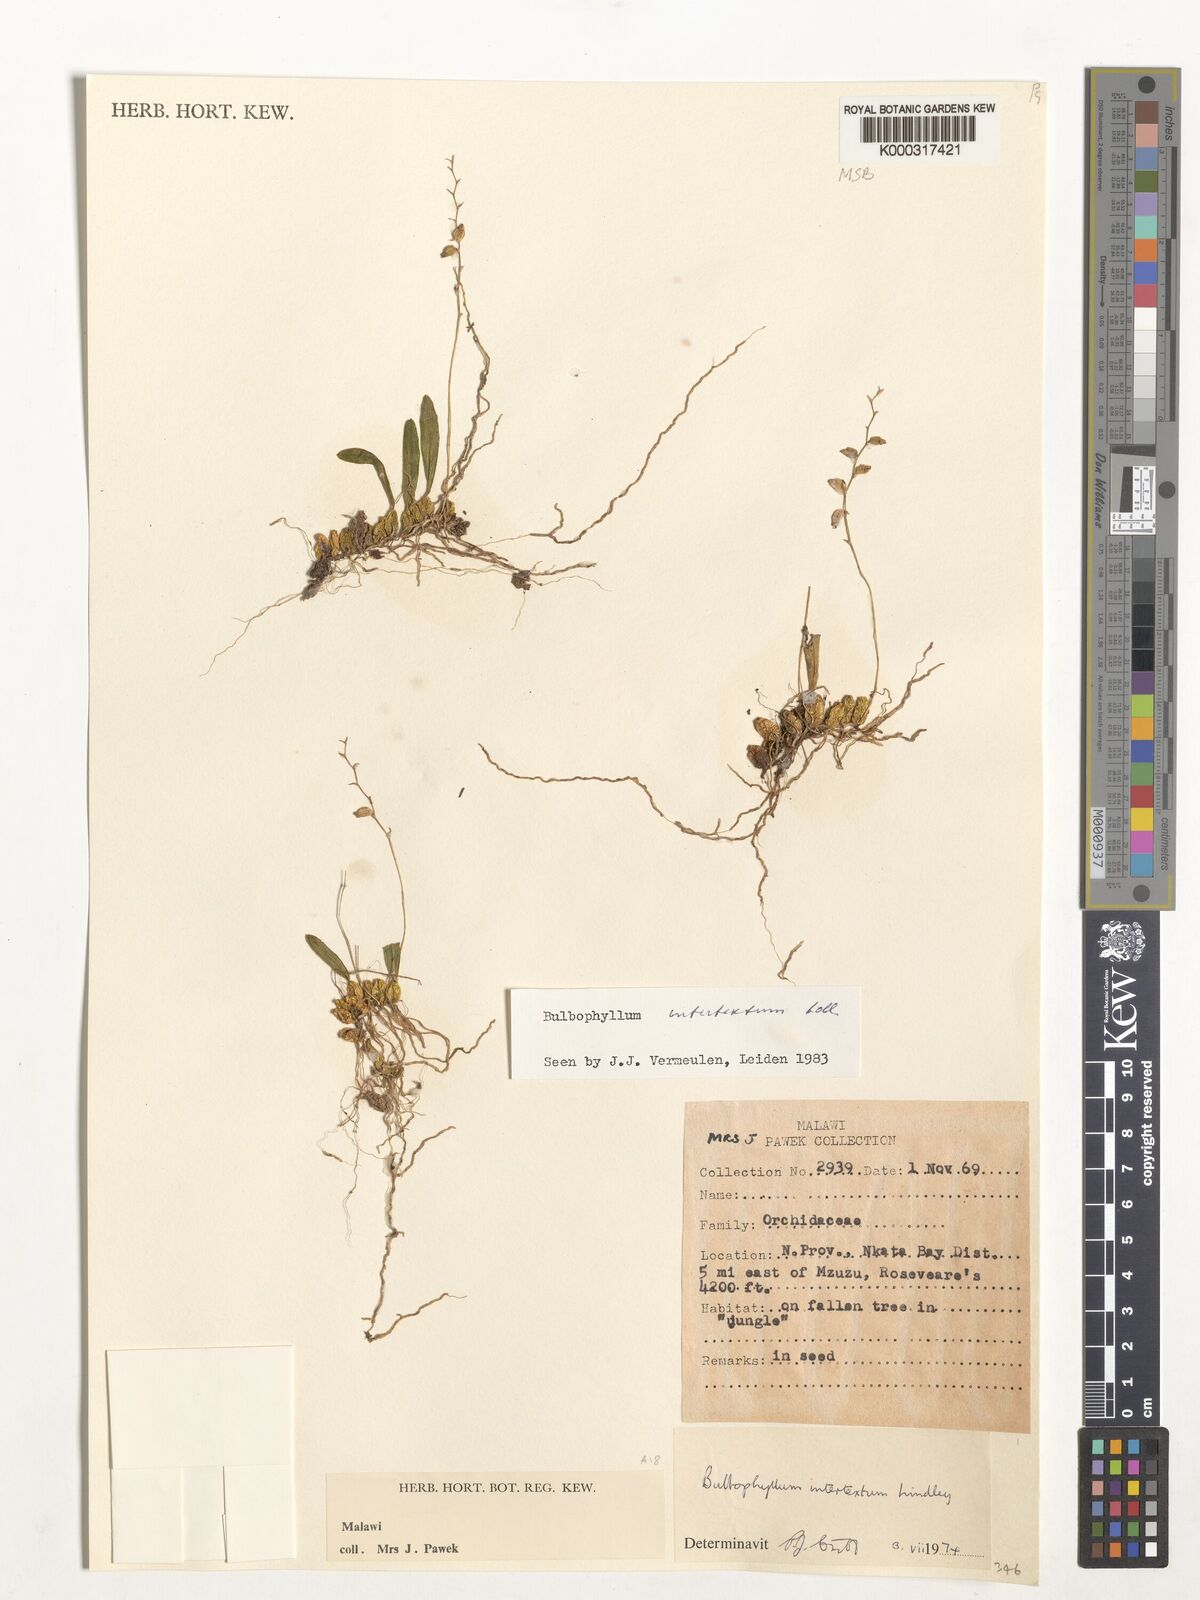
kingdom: Plantae
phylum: Tracheophyta
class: Liliopsida
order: Asparagales
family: Orchidaceae
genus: Bulbophyllum
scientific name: Bulbophyllum intertextum
